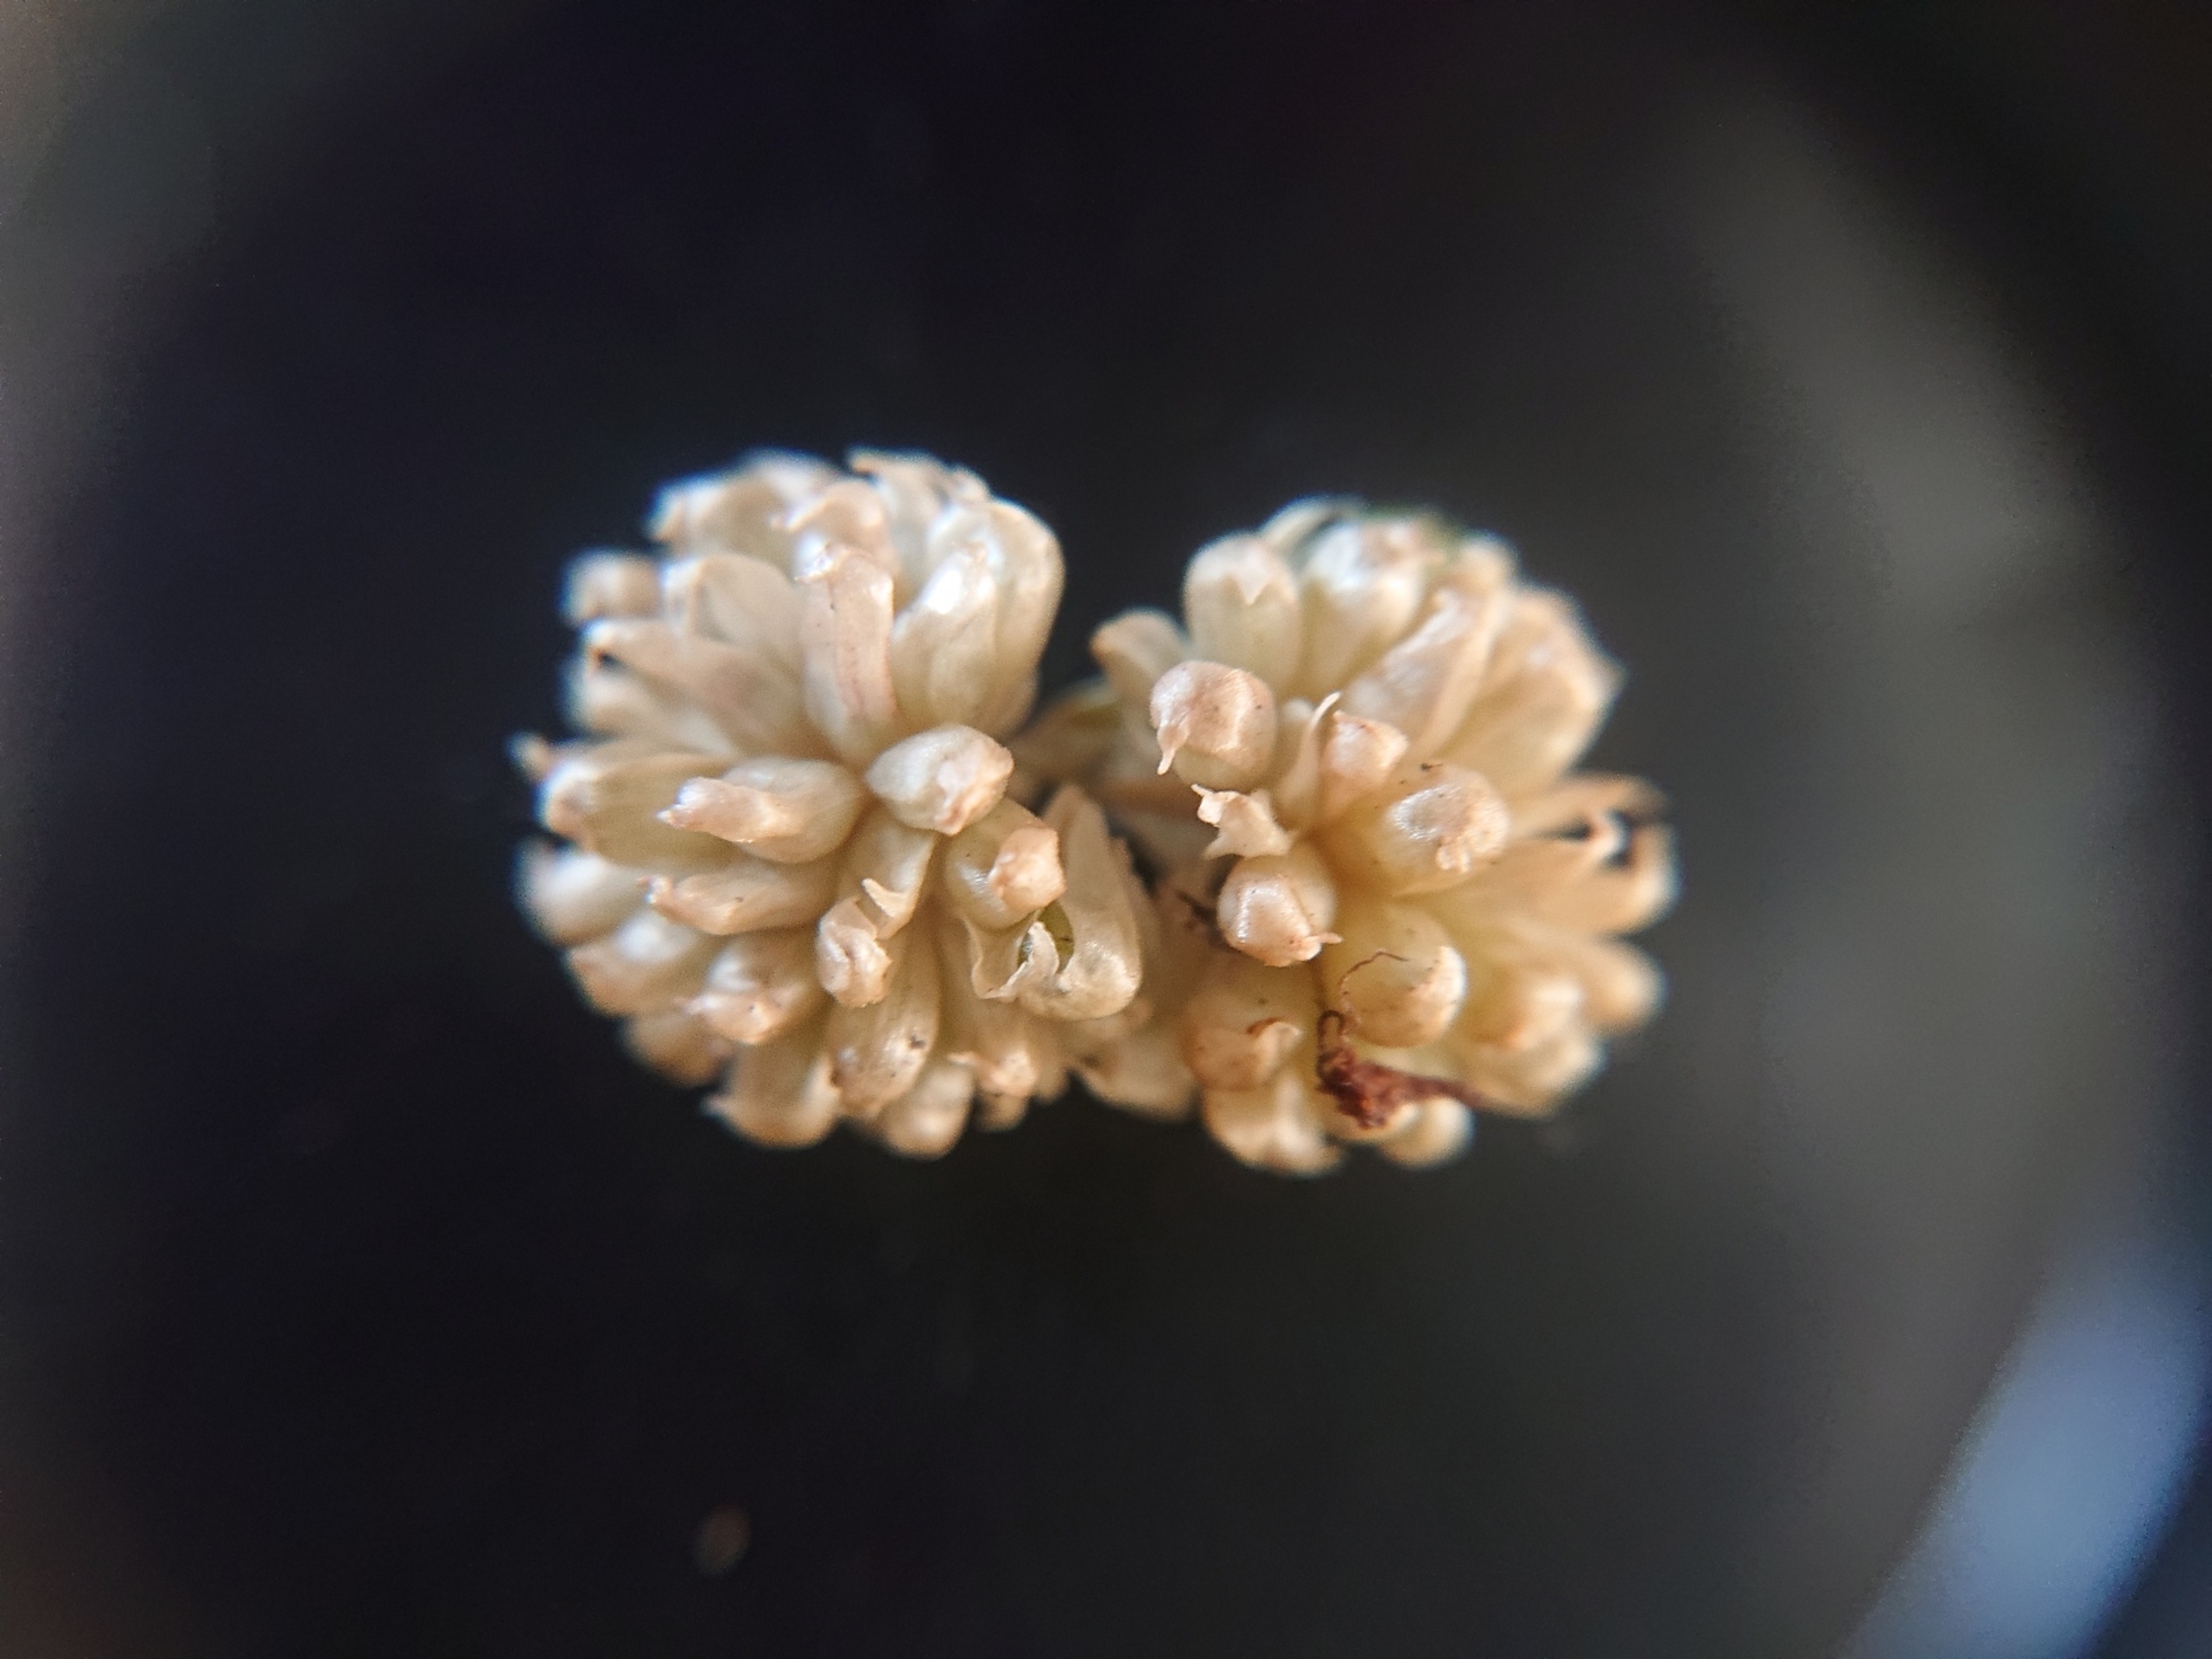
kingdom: Plantae
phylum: Tracheophyta
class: Liliopsida
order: Asparagales
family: Amaryllidaceae
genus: Allium
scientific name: Allium vineale
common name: Sand-løg
